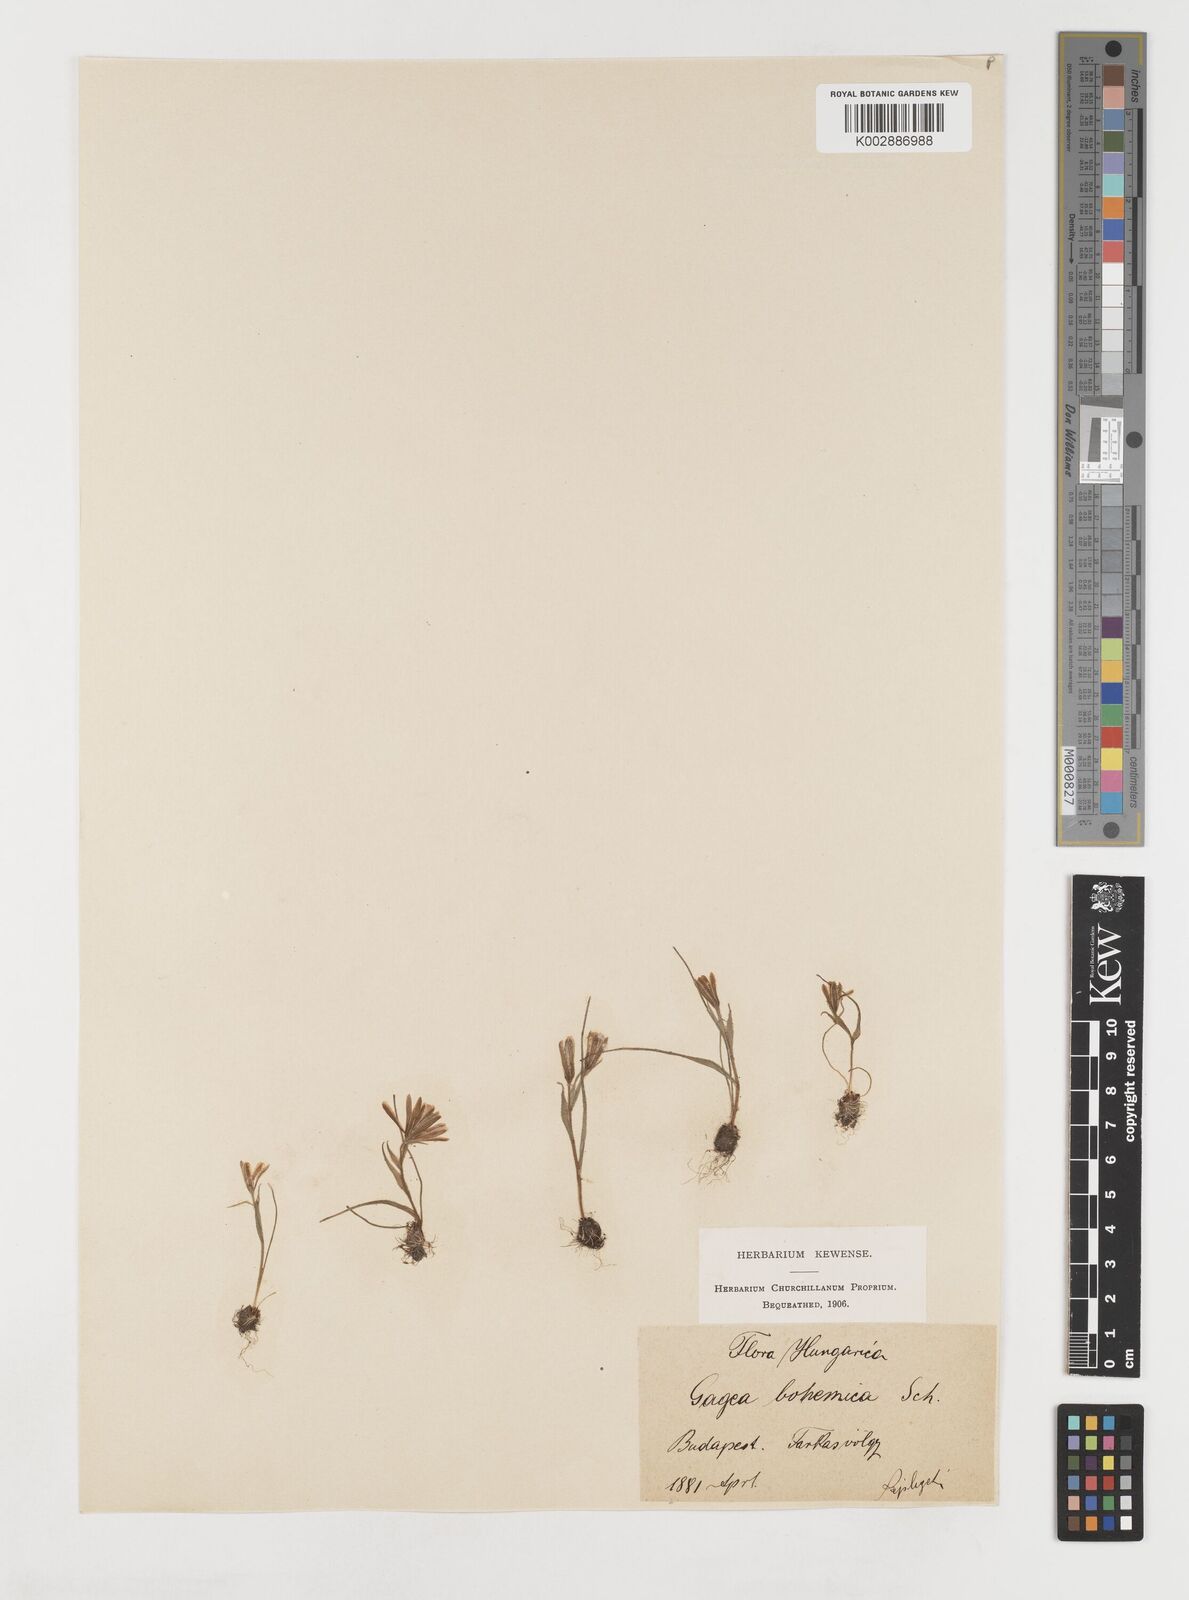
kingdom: Plantae
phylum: Tracheophyta
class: Liliopsida
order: Liliales
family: Liliaceae
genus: Gagea
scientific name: Gagea bohemica
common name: Early star-of-bethlehem
